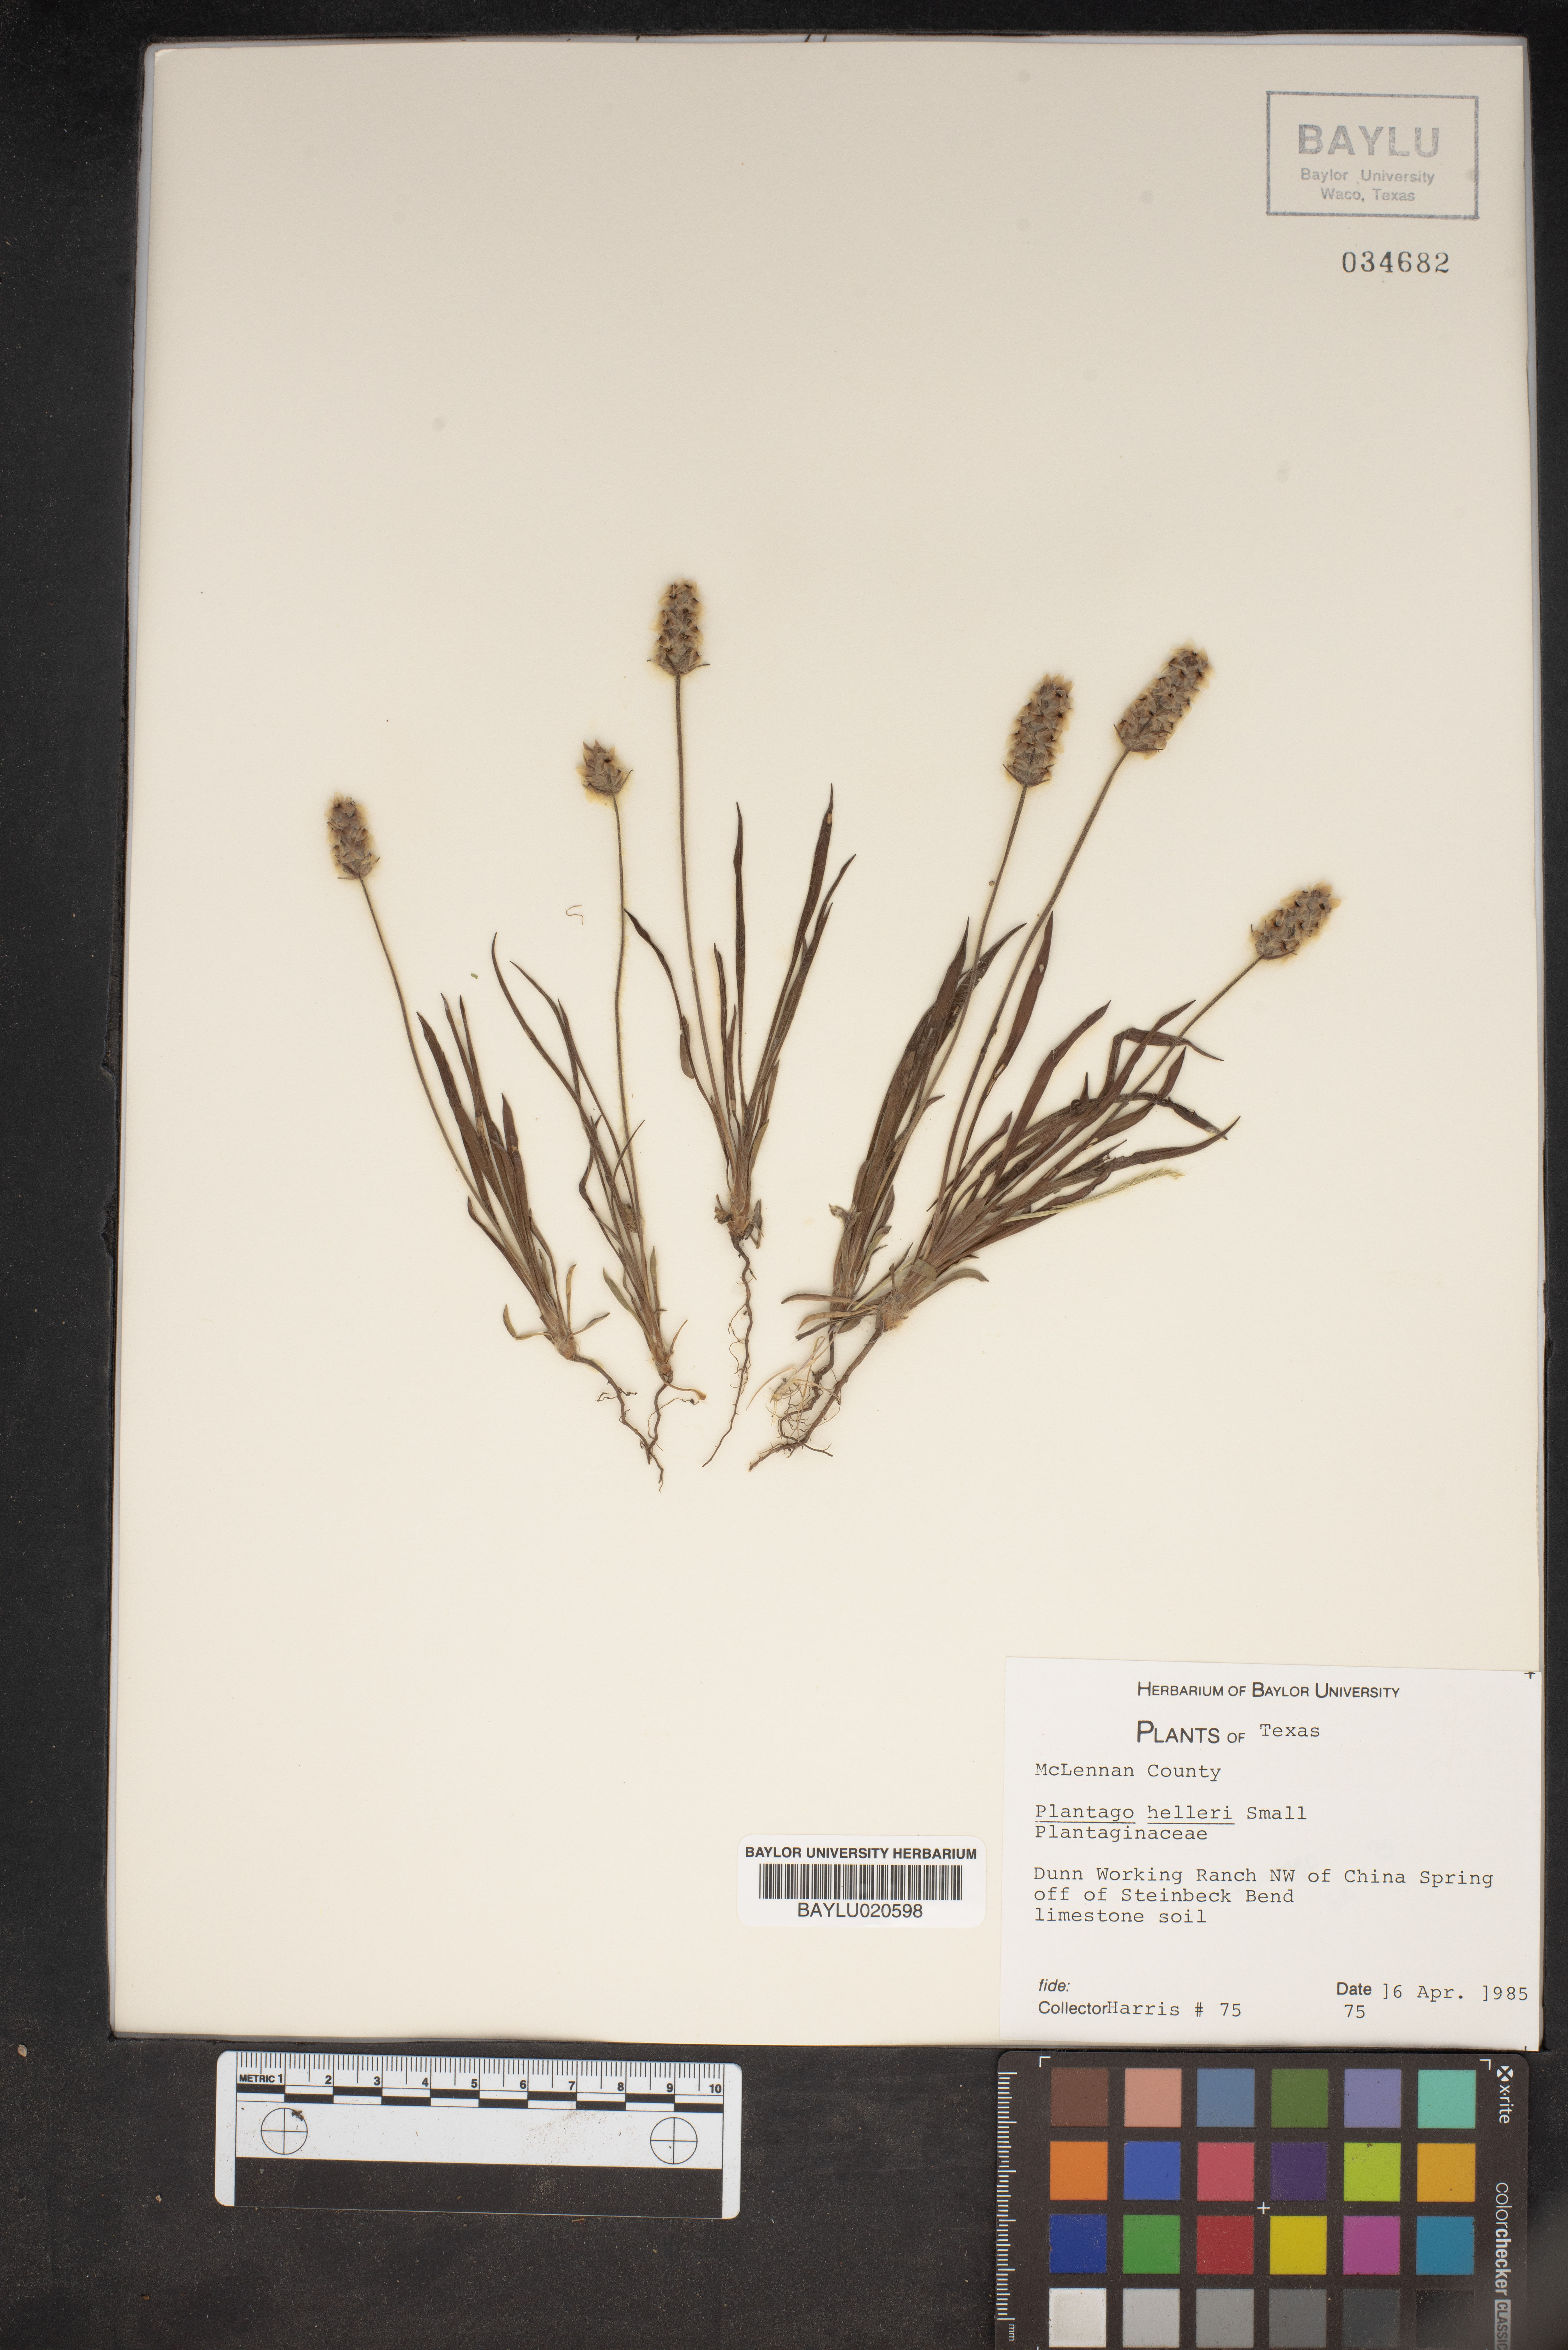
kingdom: Plantae
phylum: Tracheophyta
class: Magnoliopsida
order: Lamiales
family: Plantaginaceae
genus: Plantago
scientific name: Plantago helleri
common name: Heller's plantain
